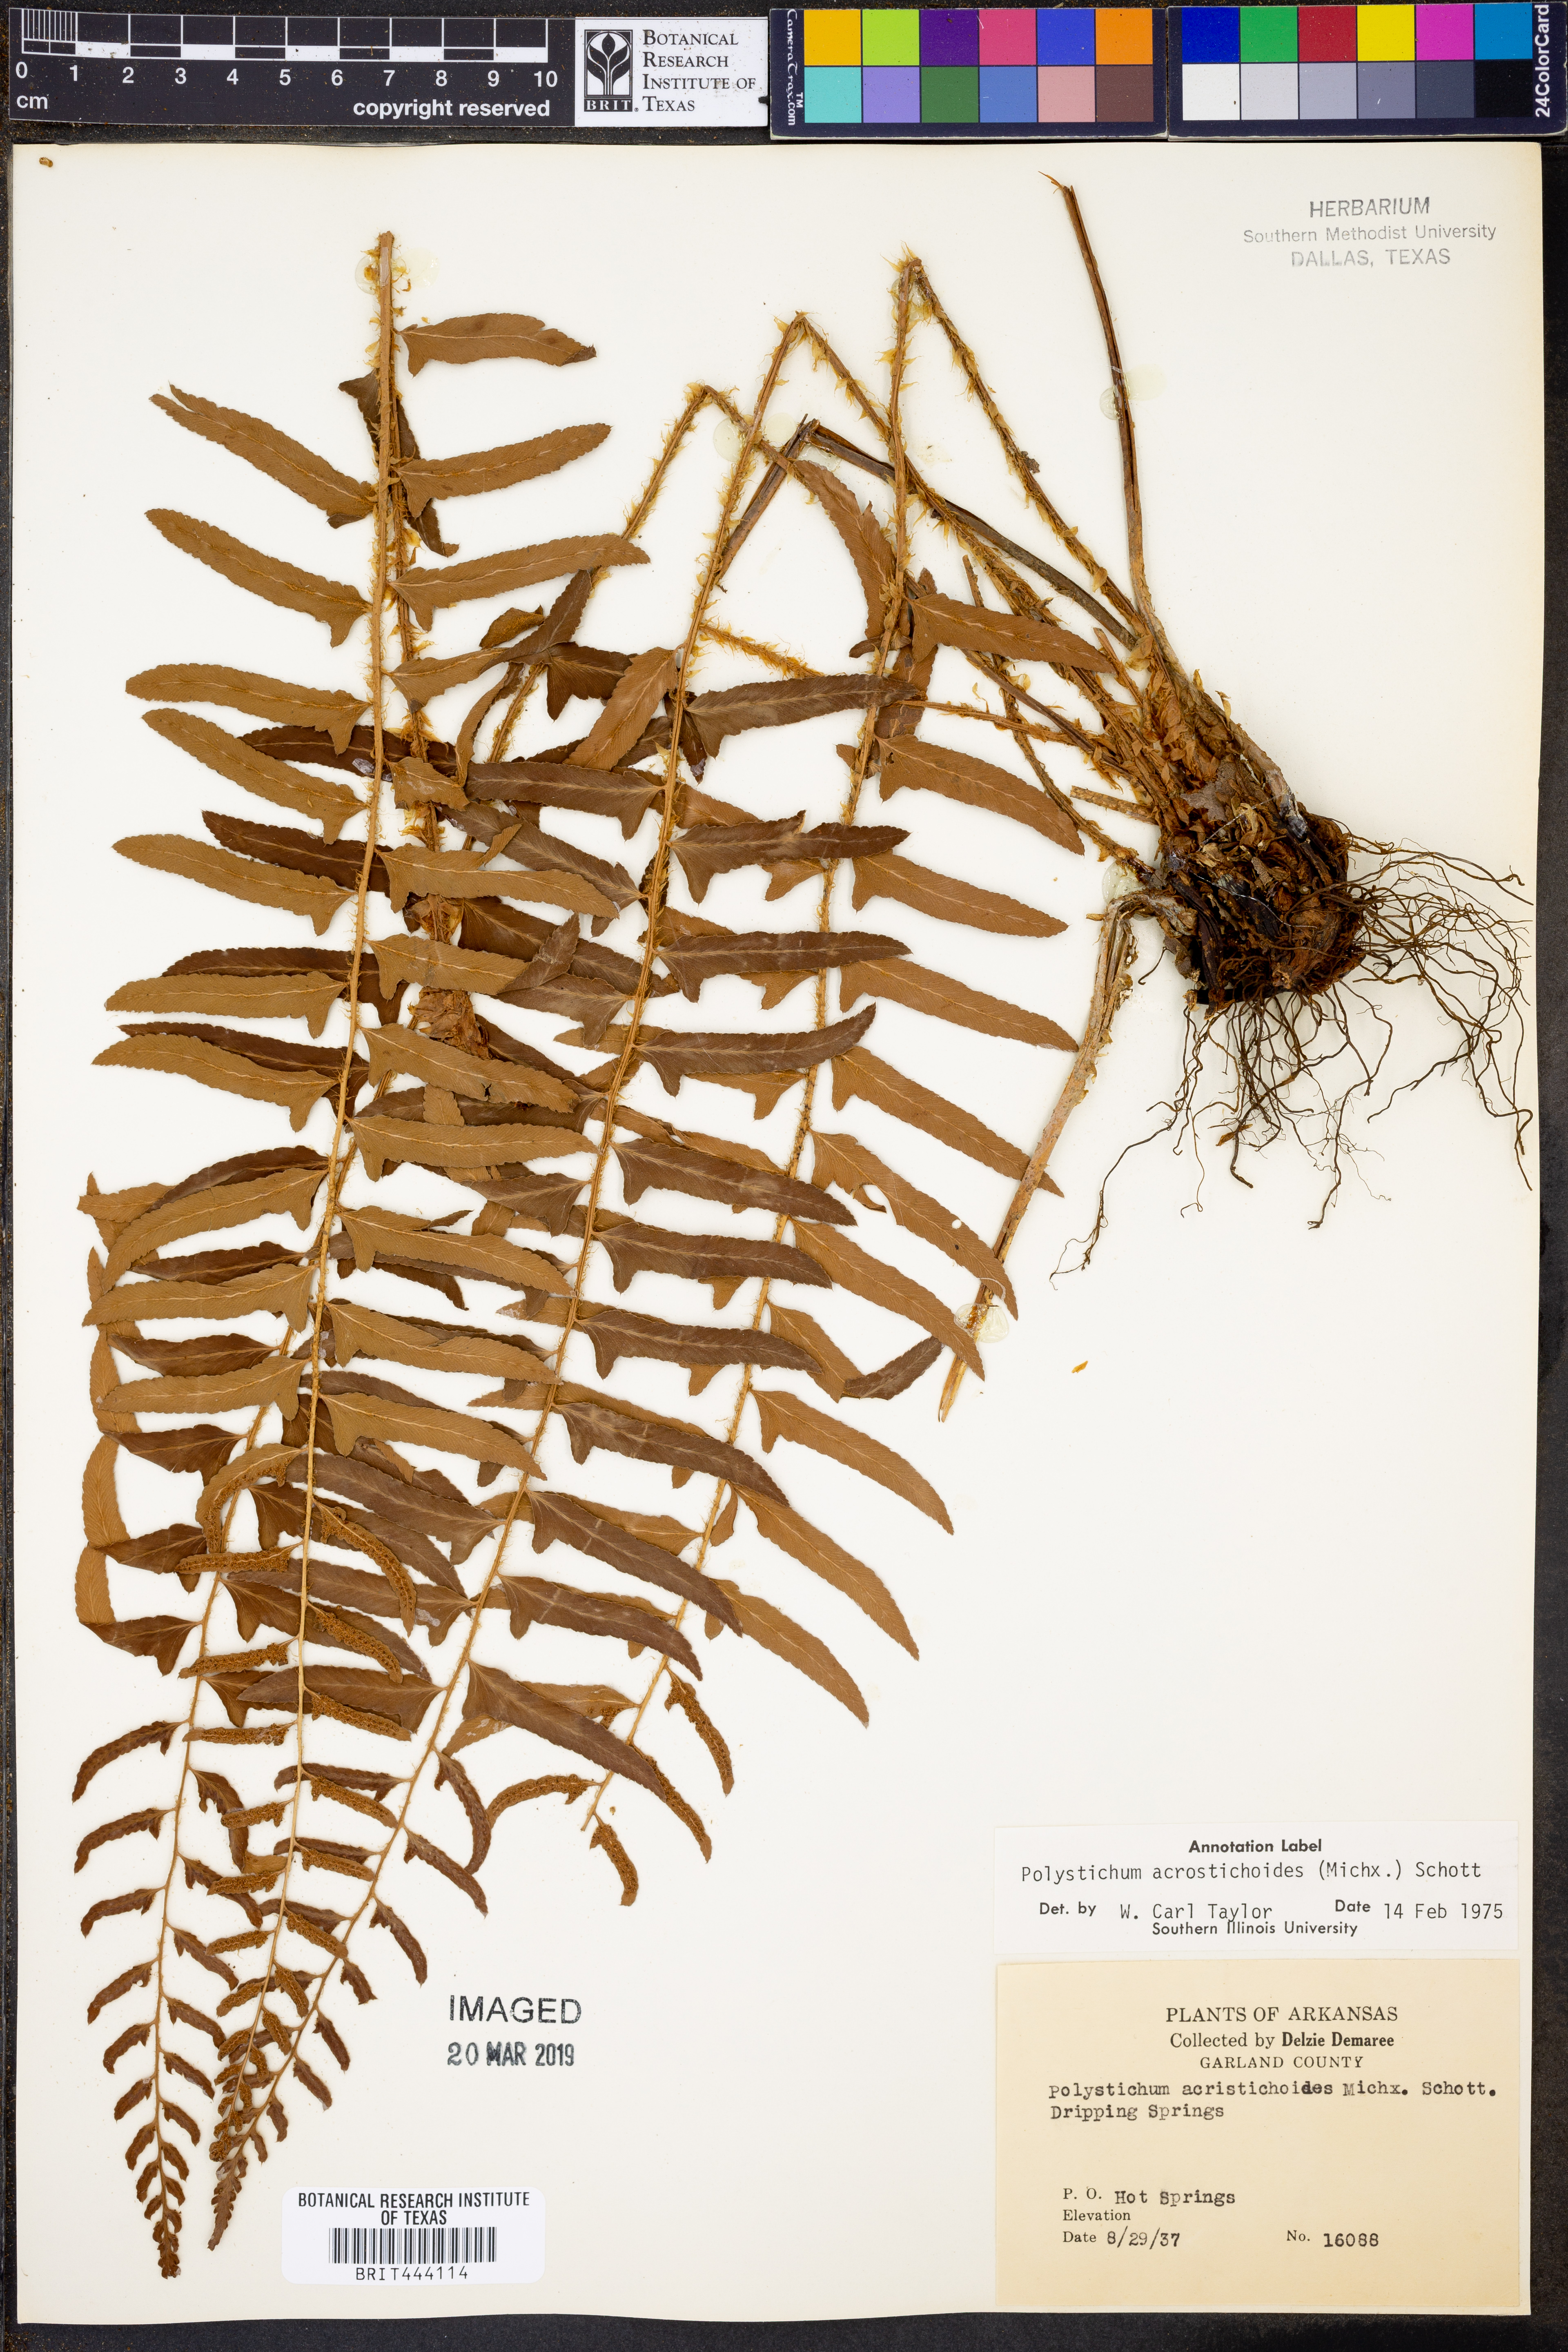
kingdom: Plantae
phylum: Tracheophyta
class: Polypodiopsida
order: Polypodiales
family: Dryopteridaceae
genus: Polystichum
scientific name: Polystichum acrostichoides
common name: Christmas fern
